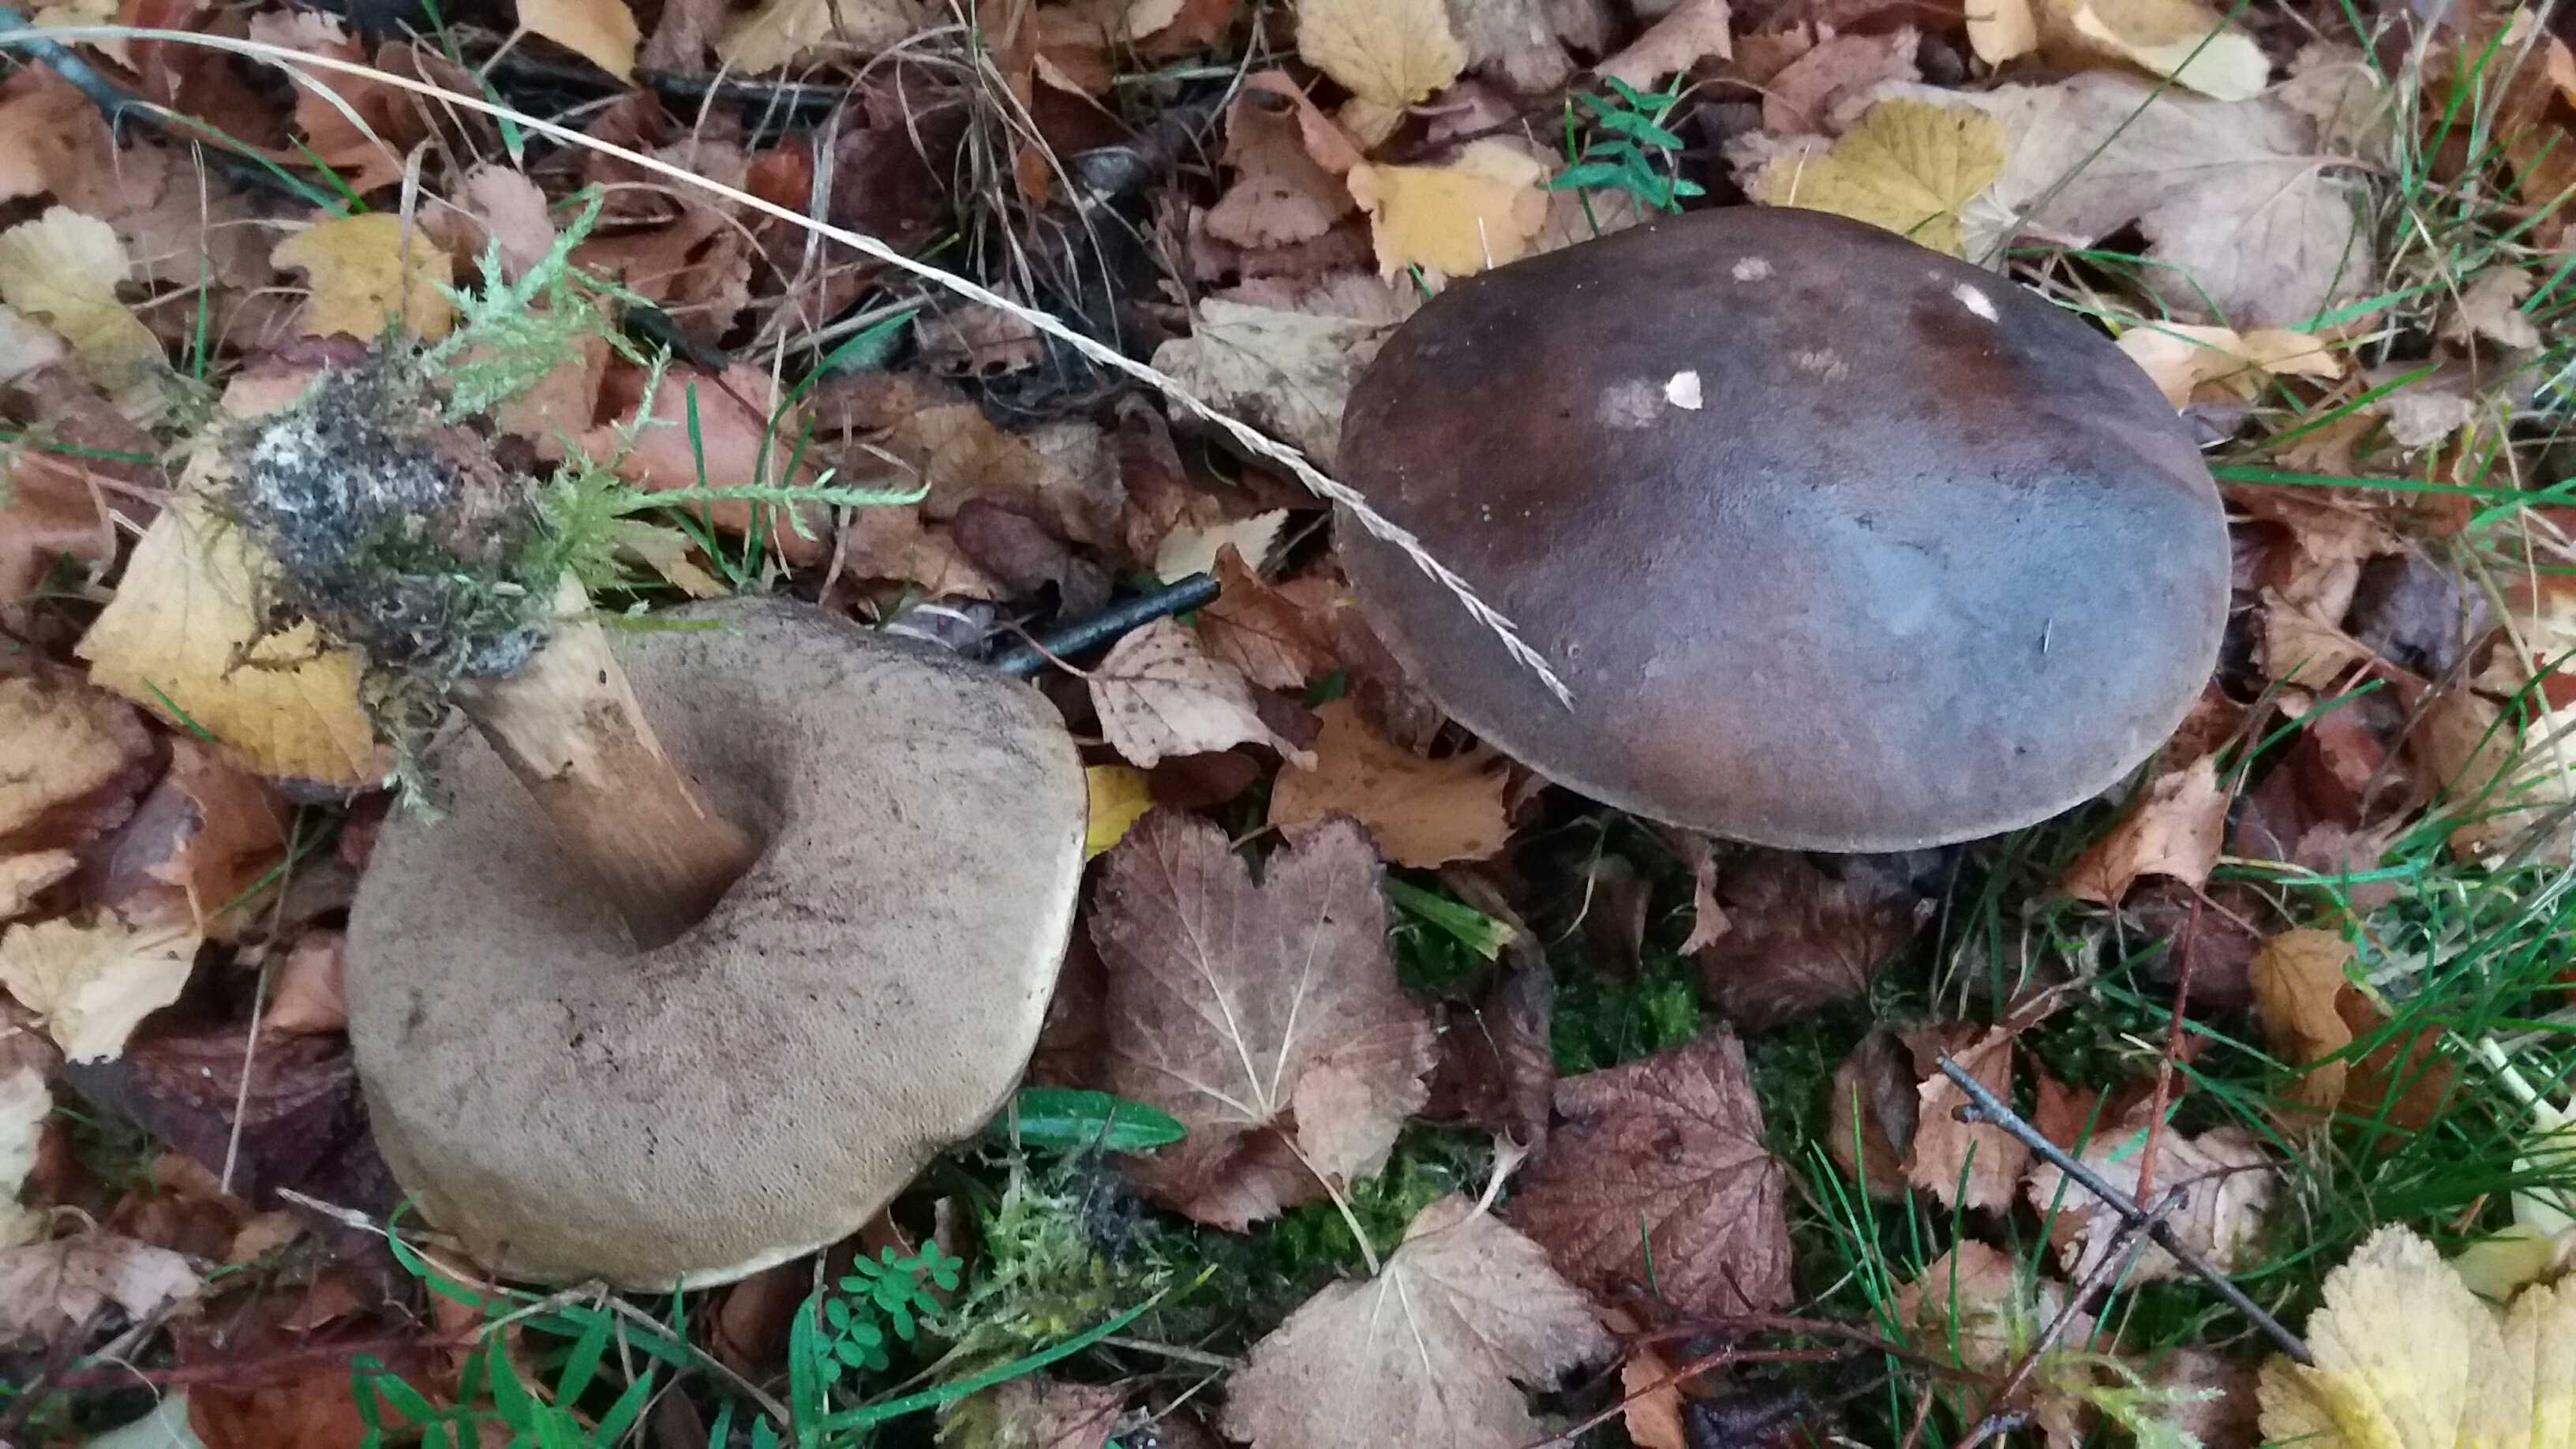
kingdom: Fungi
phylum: Basidiomycota
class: Agaricomycetes
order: Boletales
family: Boletaceae
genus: Leccinum
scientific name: Leccinum scabrum
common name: brun skælrørhat
